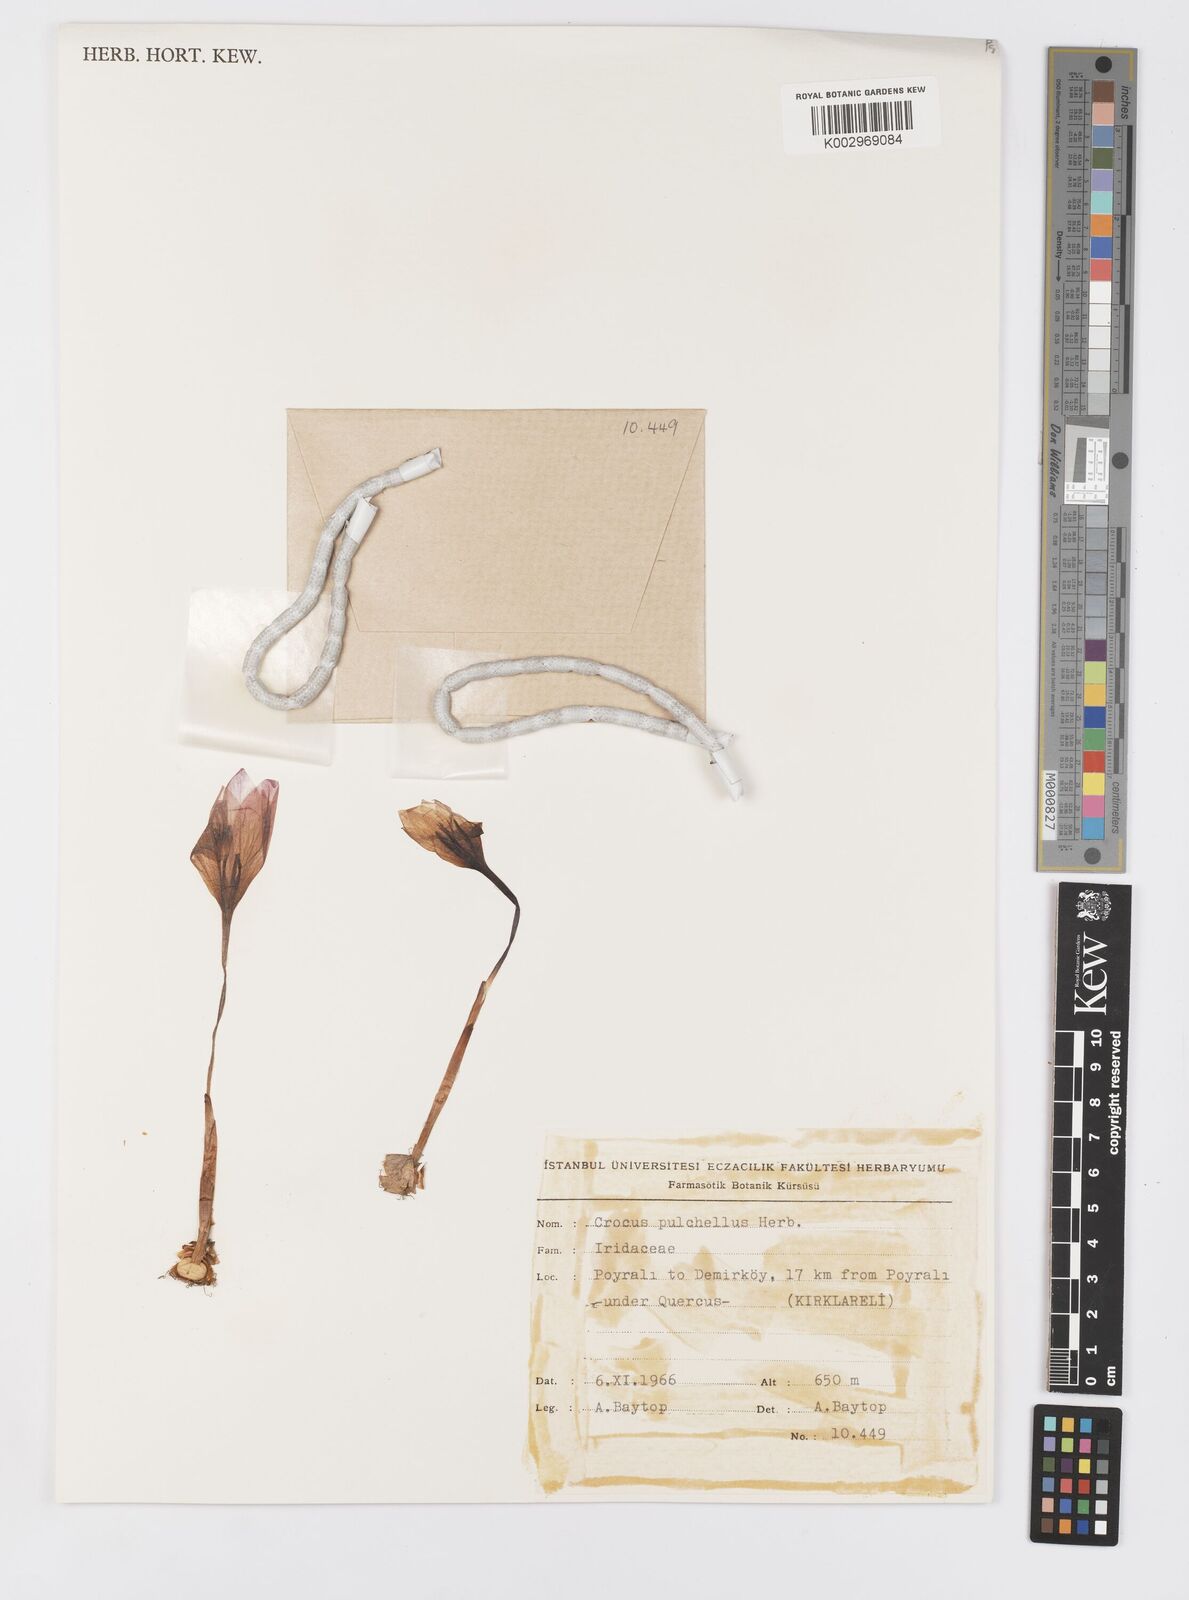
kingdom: Plantae
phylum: Tracheophyta
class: Liliopsida
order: Asparagales
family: Iridaceae
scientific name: Iridaceae
